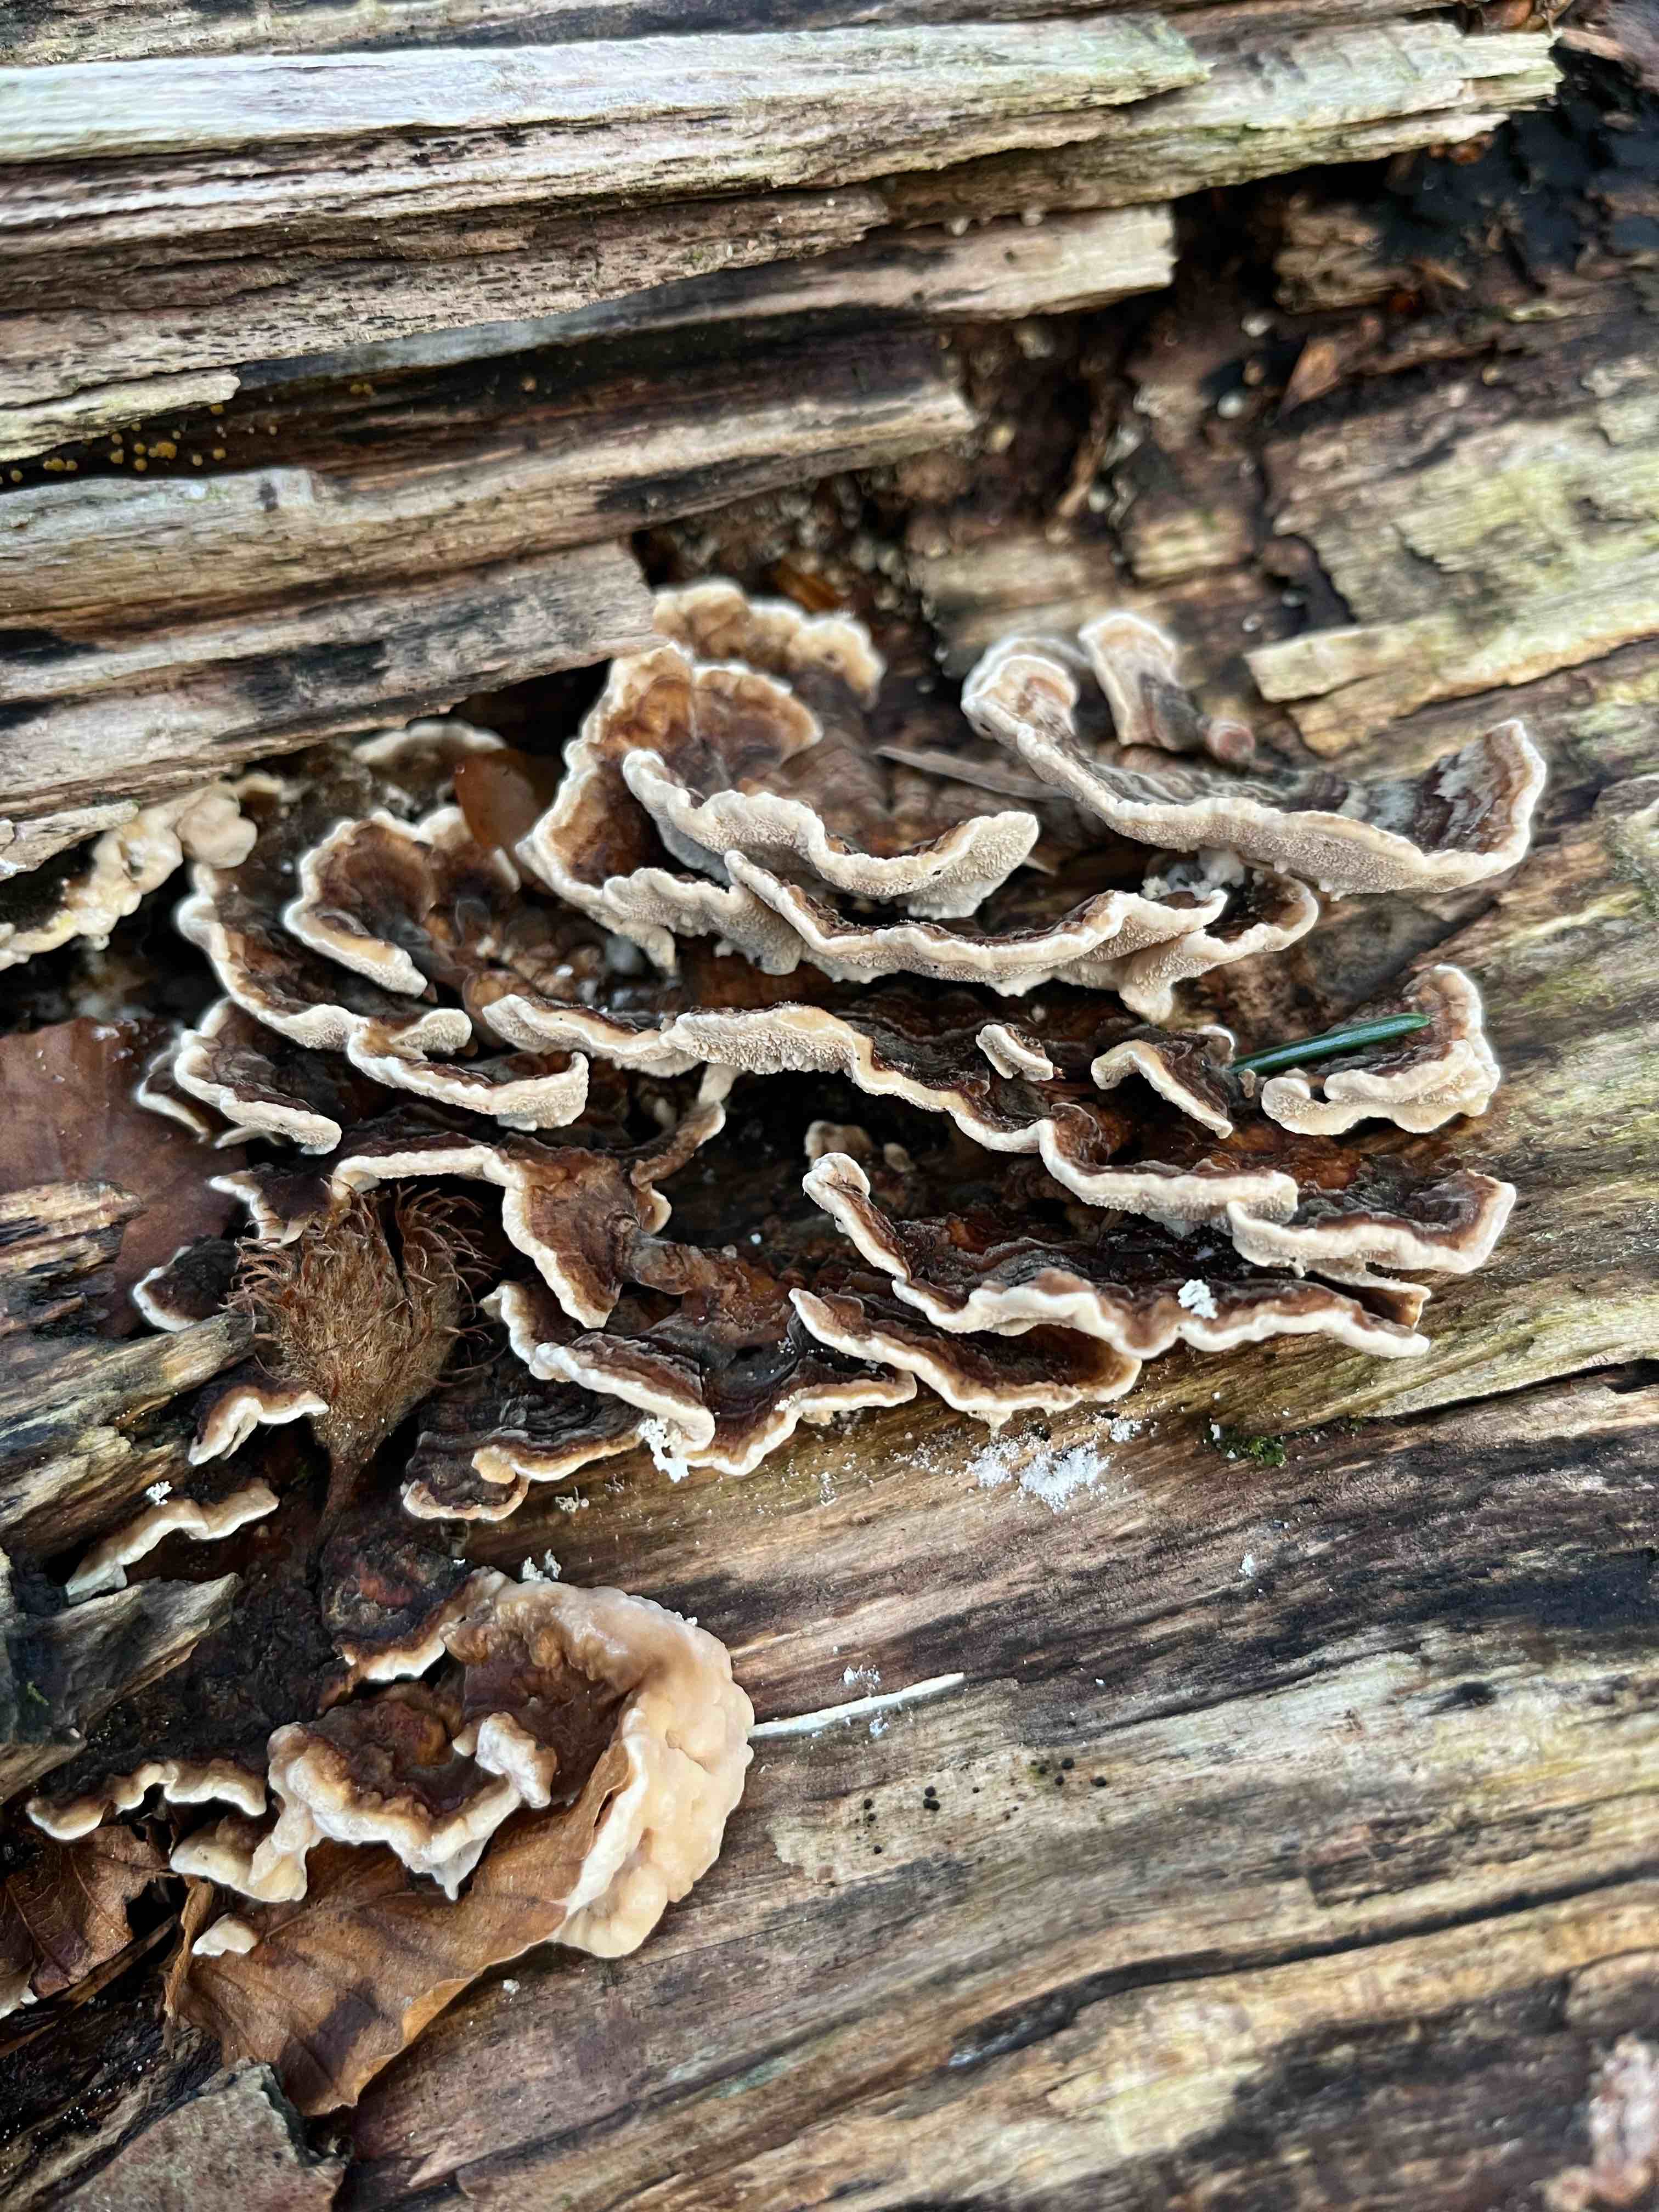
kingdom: Fungi
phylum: Basidiomycota
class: Agaricomycetes
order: Polyporales
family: Polyporaceae
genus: Trametes
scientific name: Trametes versicolor
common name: broget læderporesvamp
